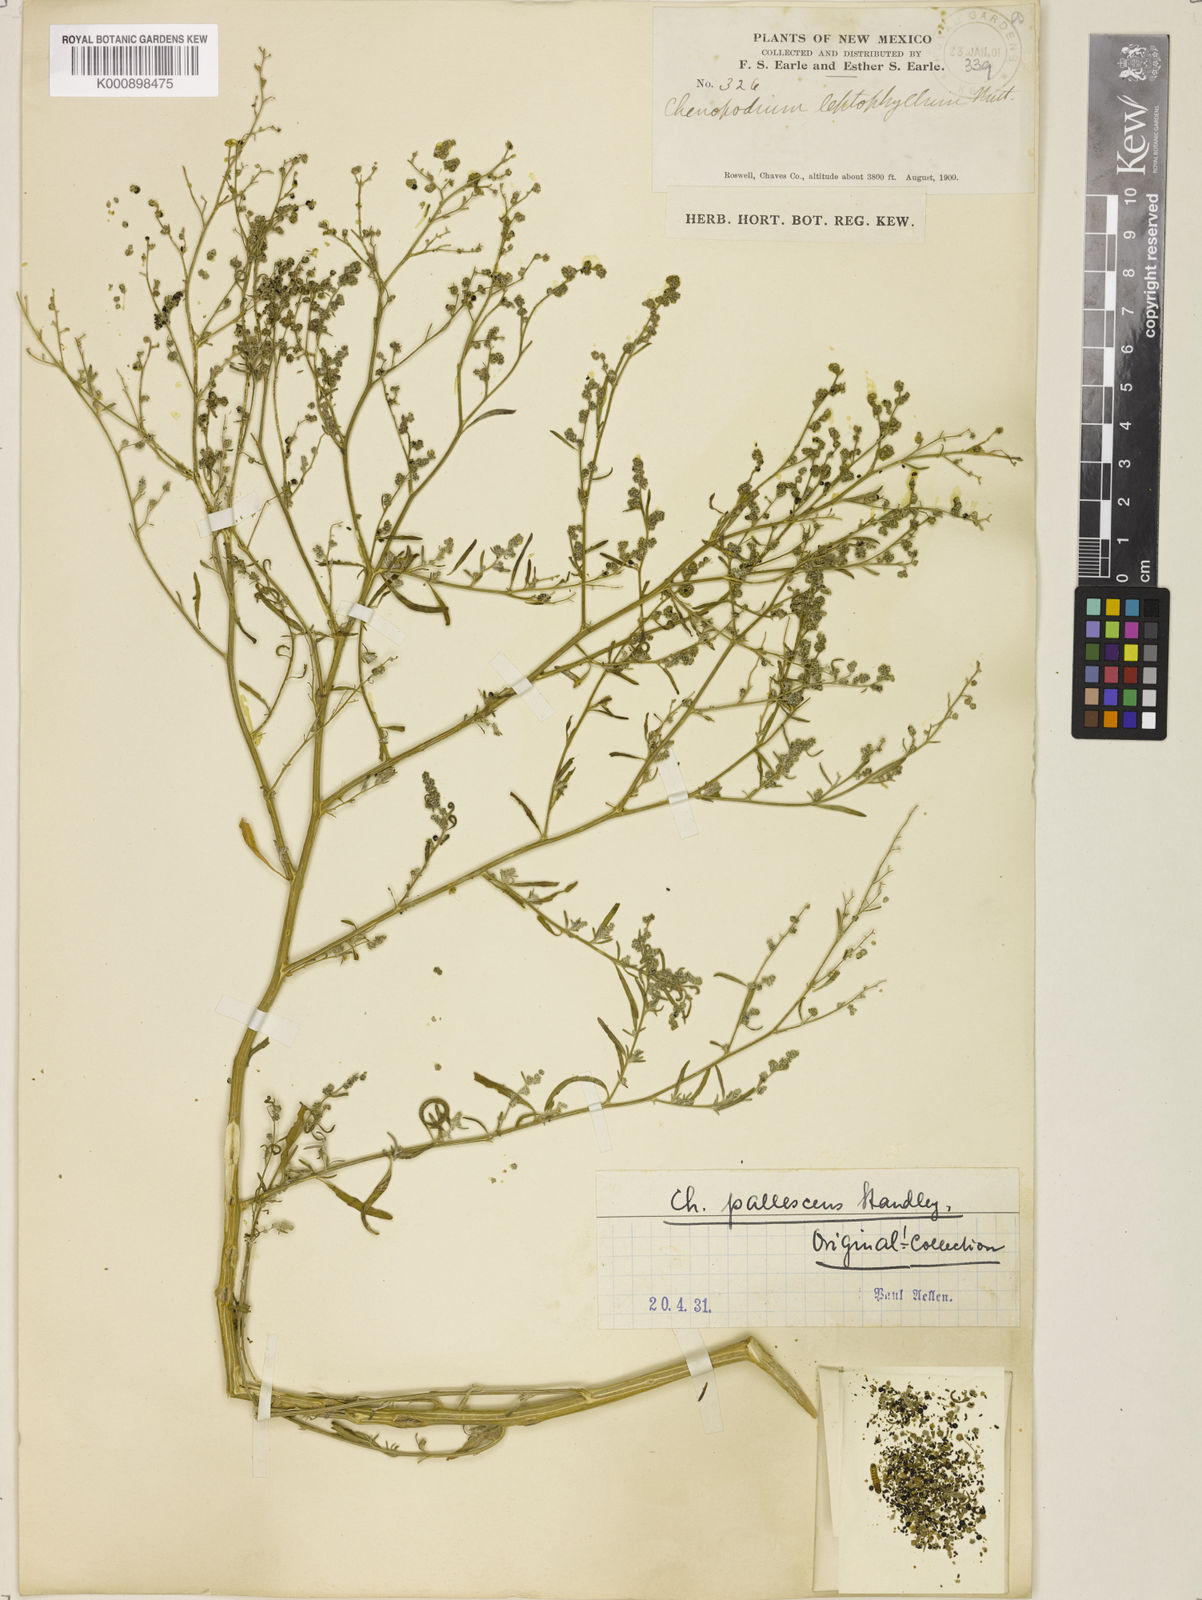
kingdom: Plantae
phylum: Tracheophyta
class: Magnoliopsida
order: Caryophyllales
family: Amaranthaceae
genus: Chenopodium
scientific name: Chenopodium pallescens
